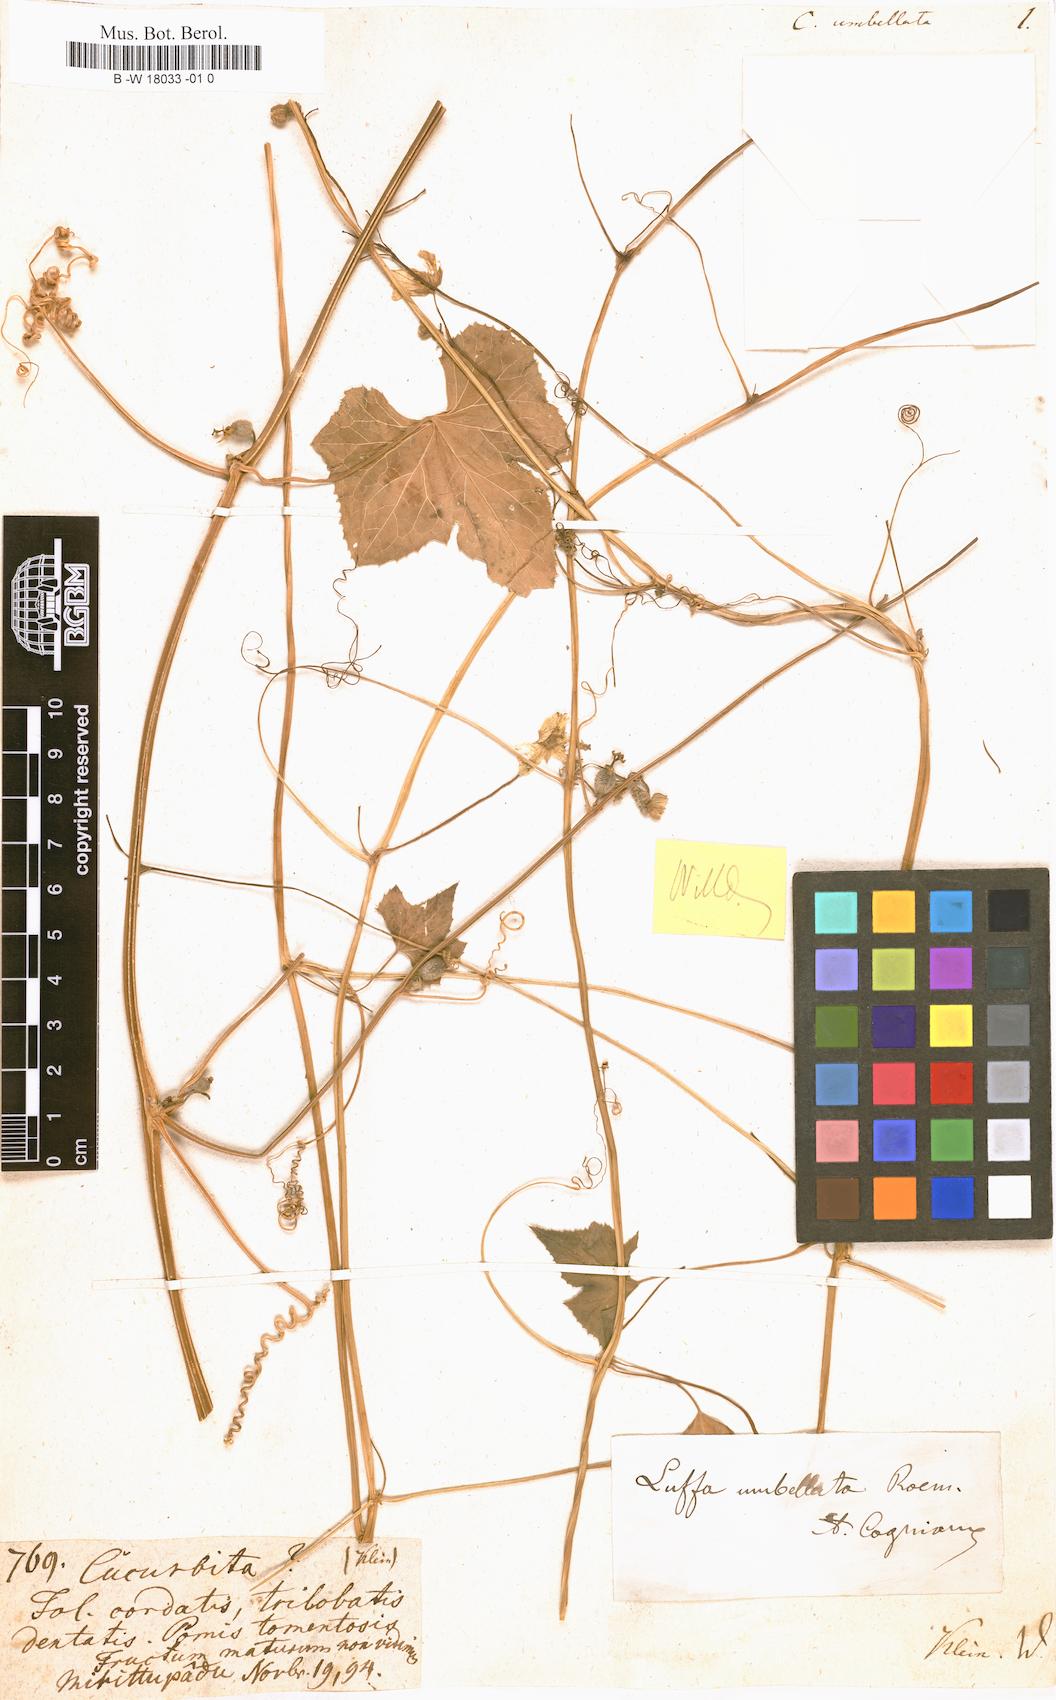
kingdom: Plantae
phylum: Tracheophyta
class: Magnoliopsida
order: Cucurbitales
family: Cucurbitaceae
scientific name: Cucurbitaceae
